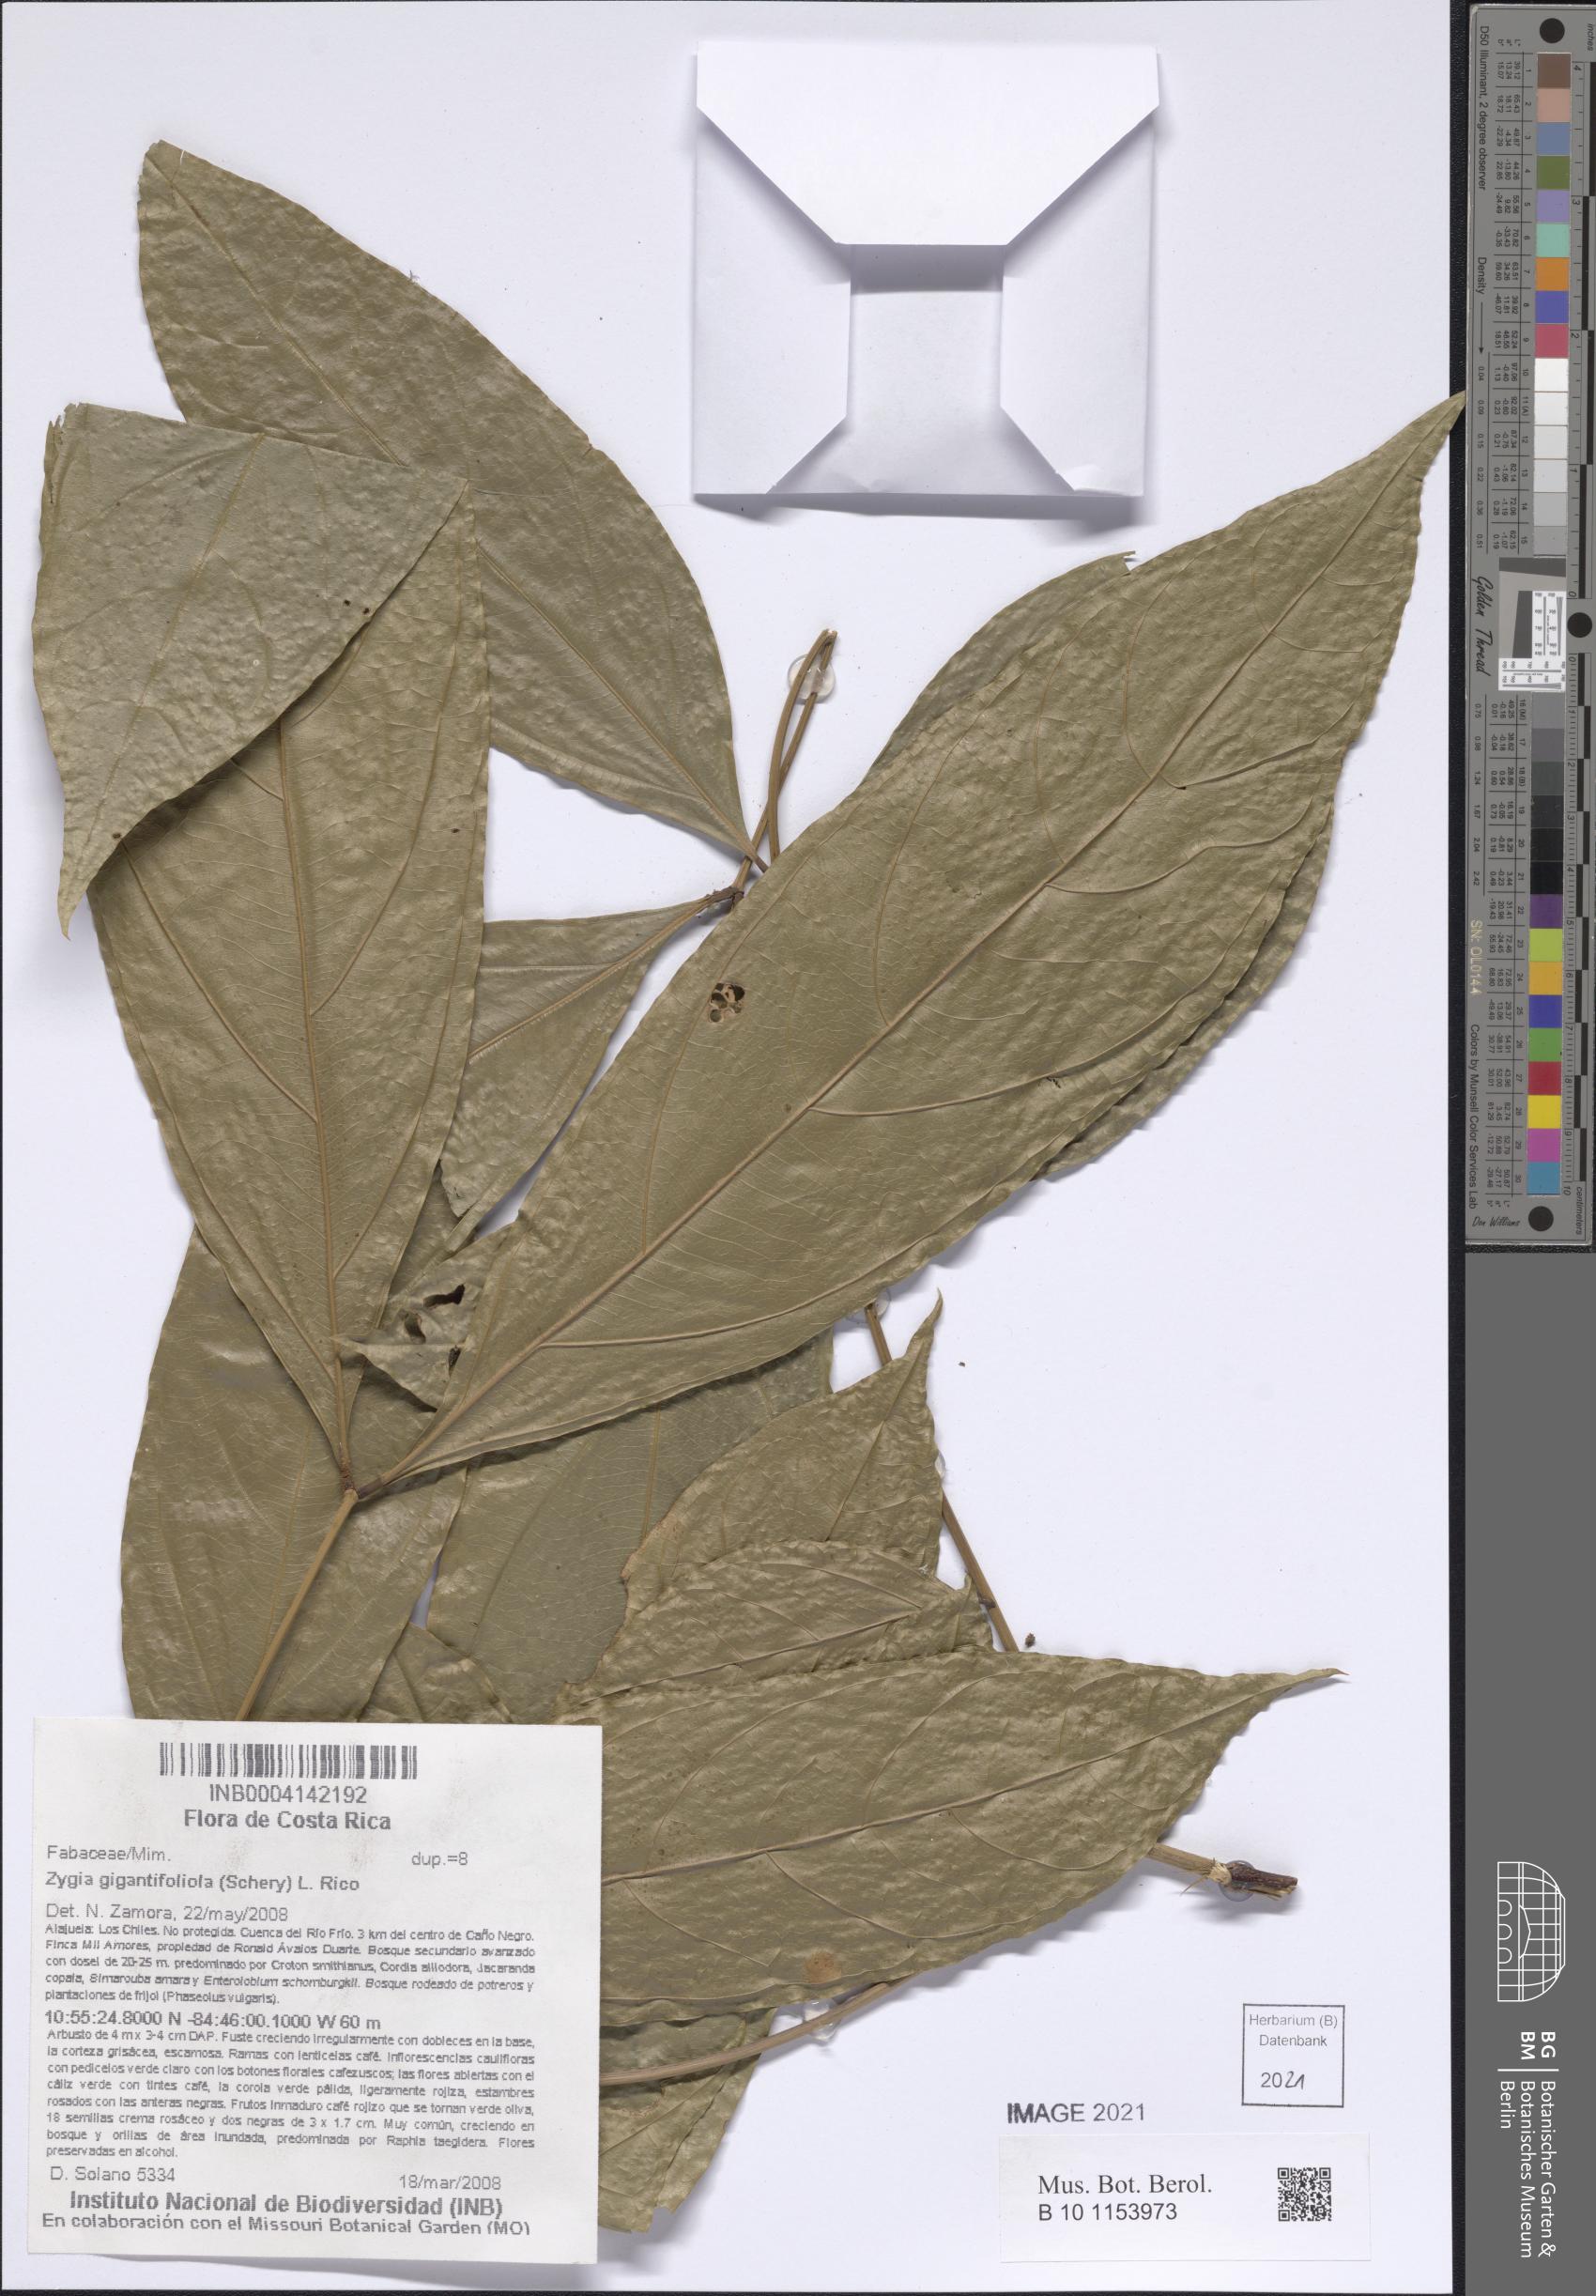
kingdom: Plantae
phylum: Tracheophyta
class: Magnoliopsida
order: Fabales
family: Fabaceae
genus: Zygia
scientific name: Zygia engelsingii
